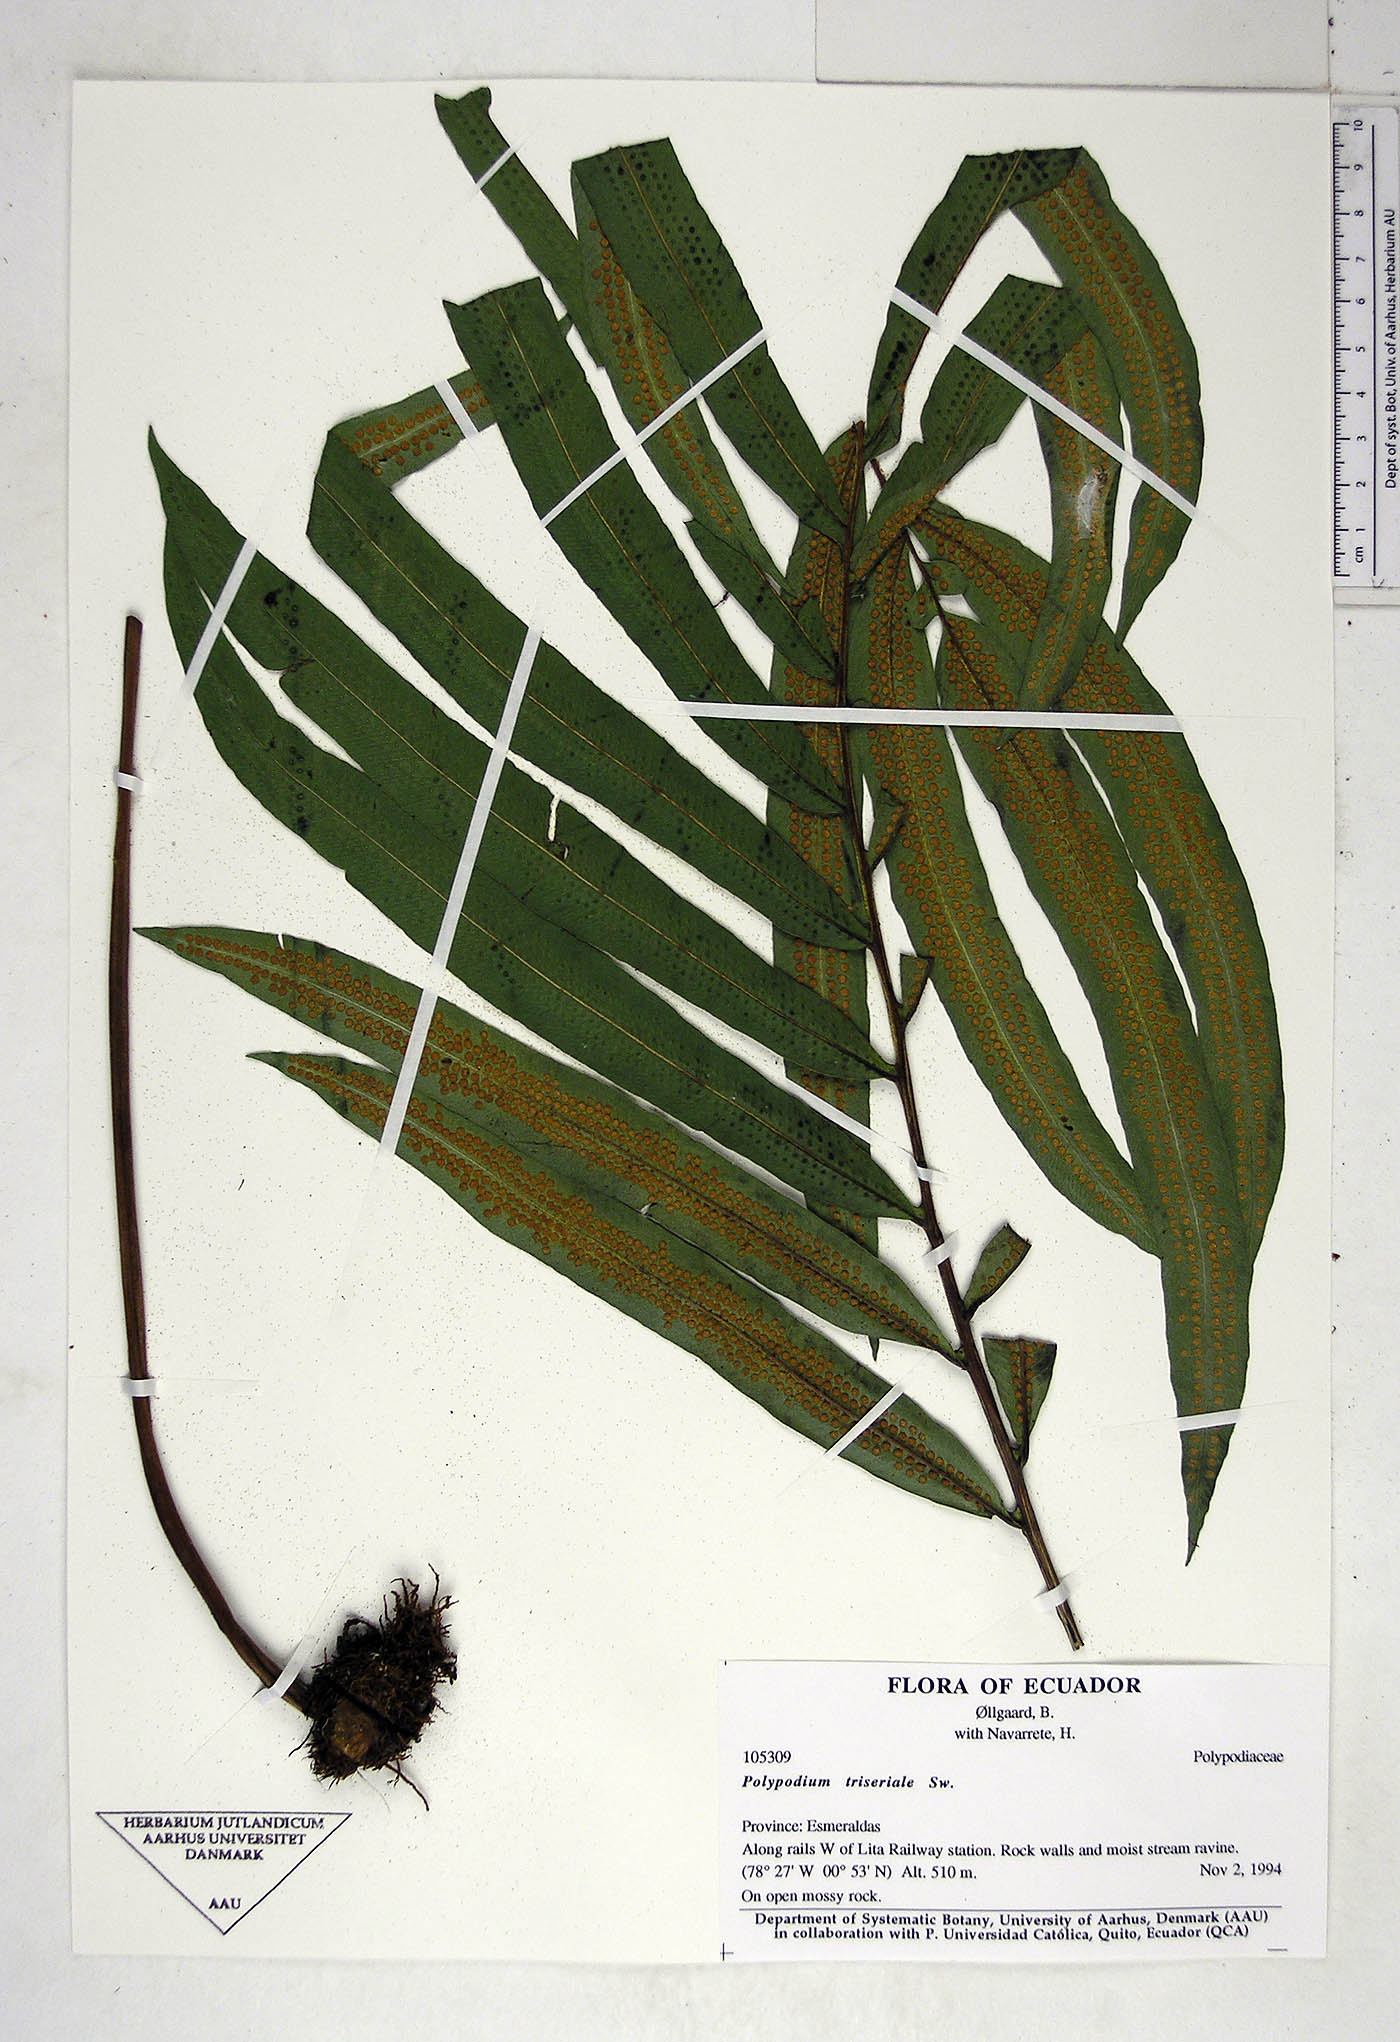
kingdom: Plantae
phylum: Tracheophyta
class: Polypodiopsida
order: Polypodiales
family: Polypodiaceae
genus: Serpocaulon
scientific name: Serpocaulon triseriale
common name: Angle-vein fern
